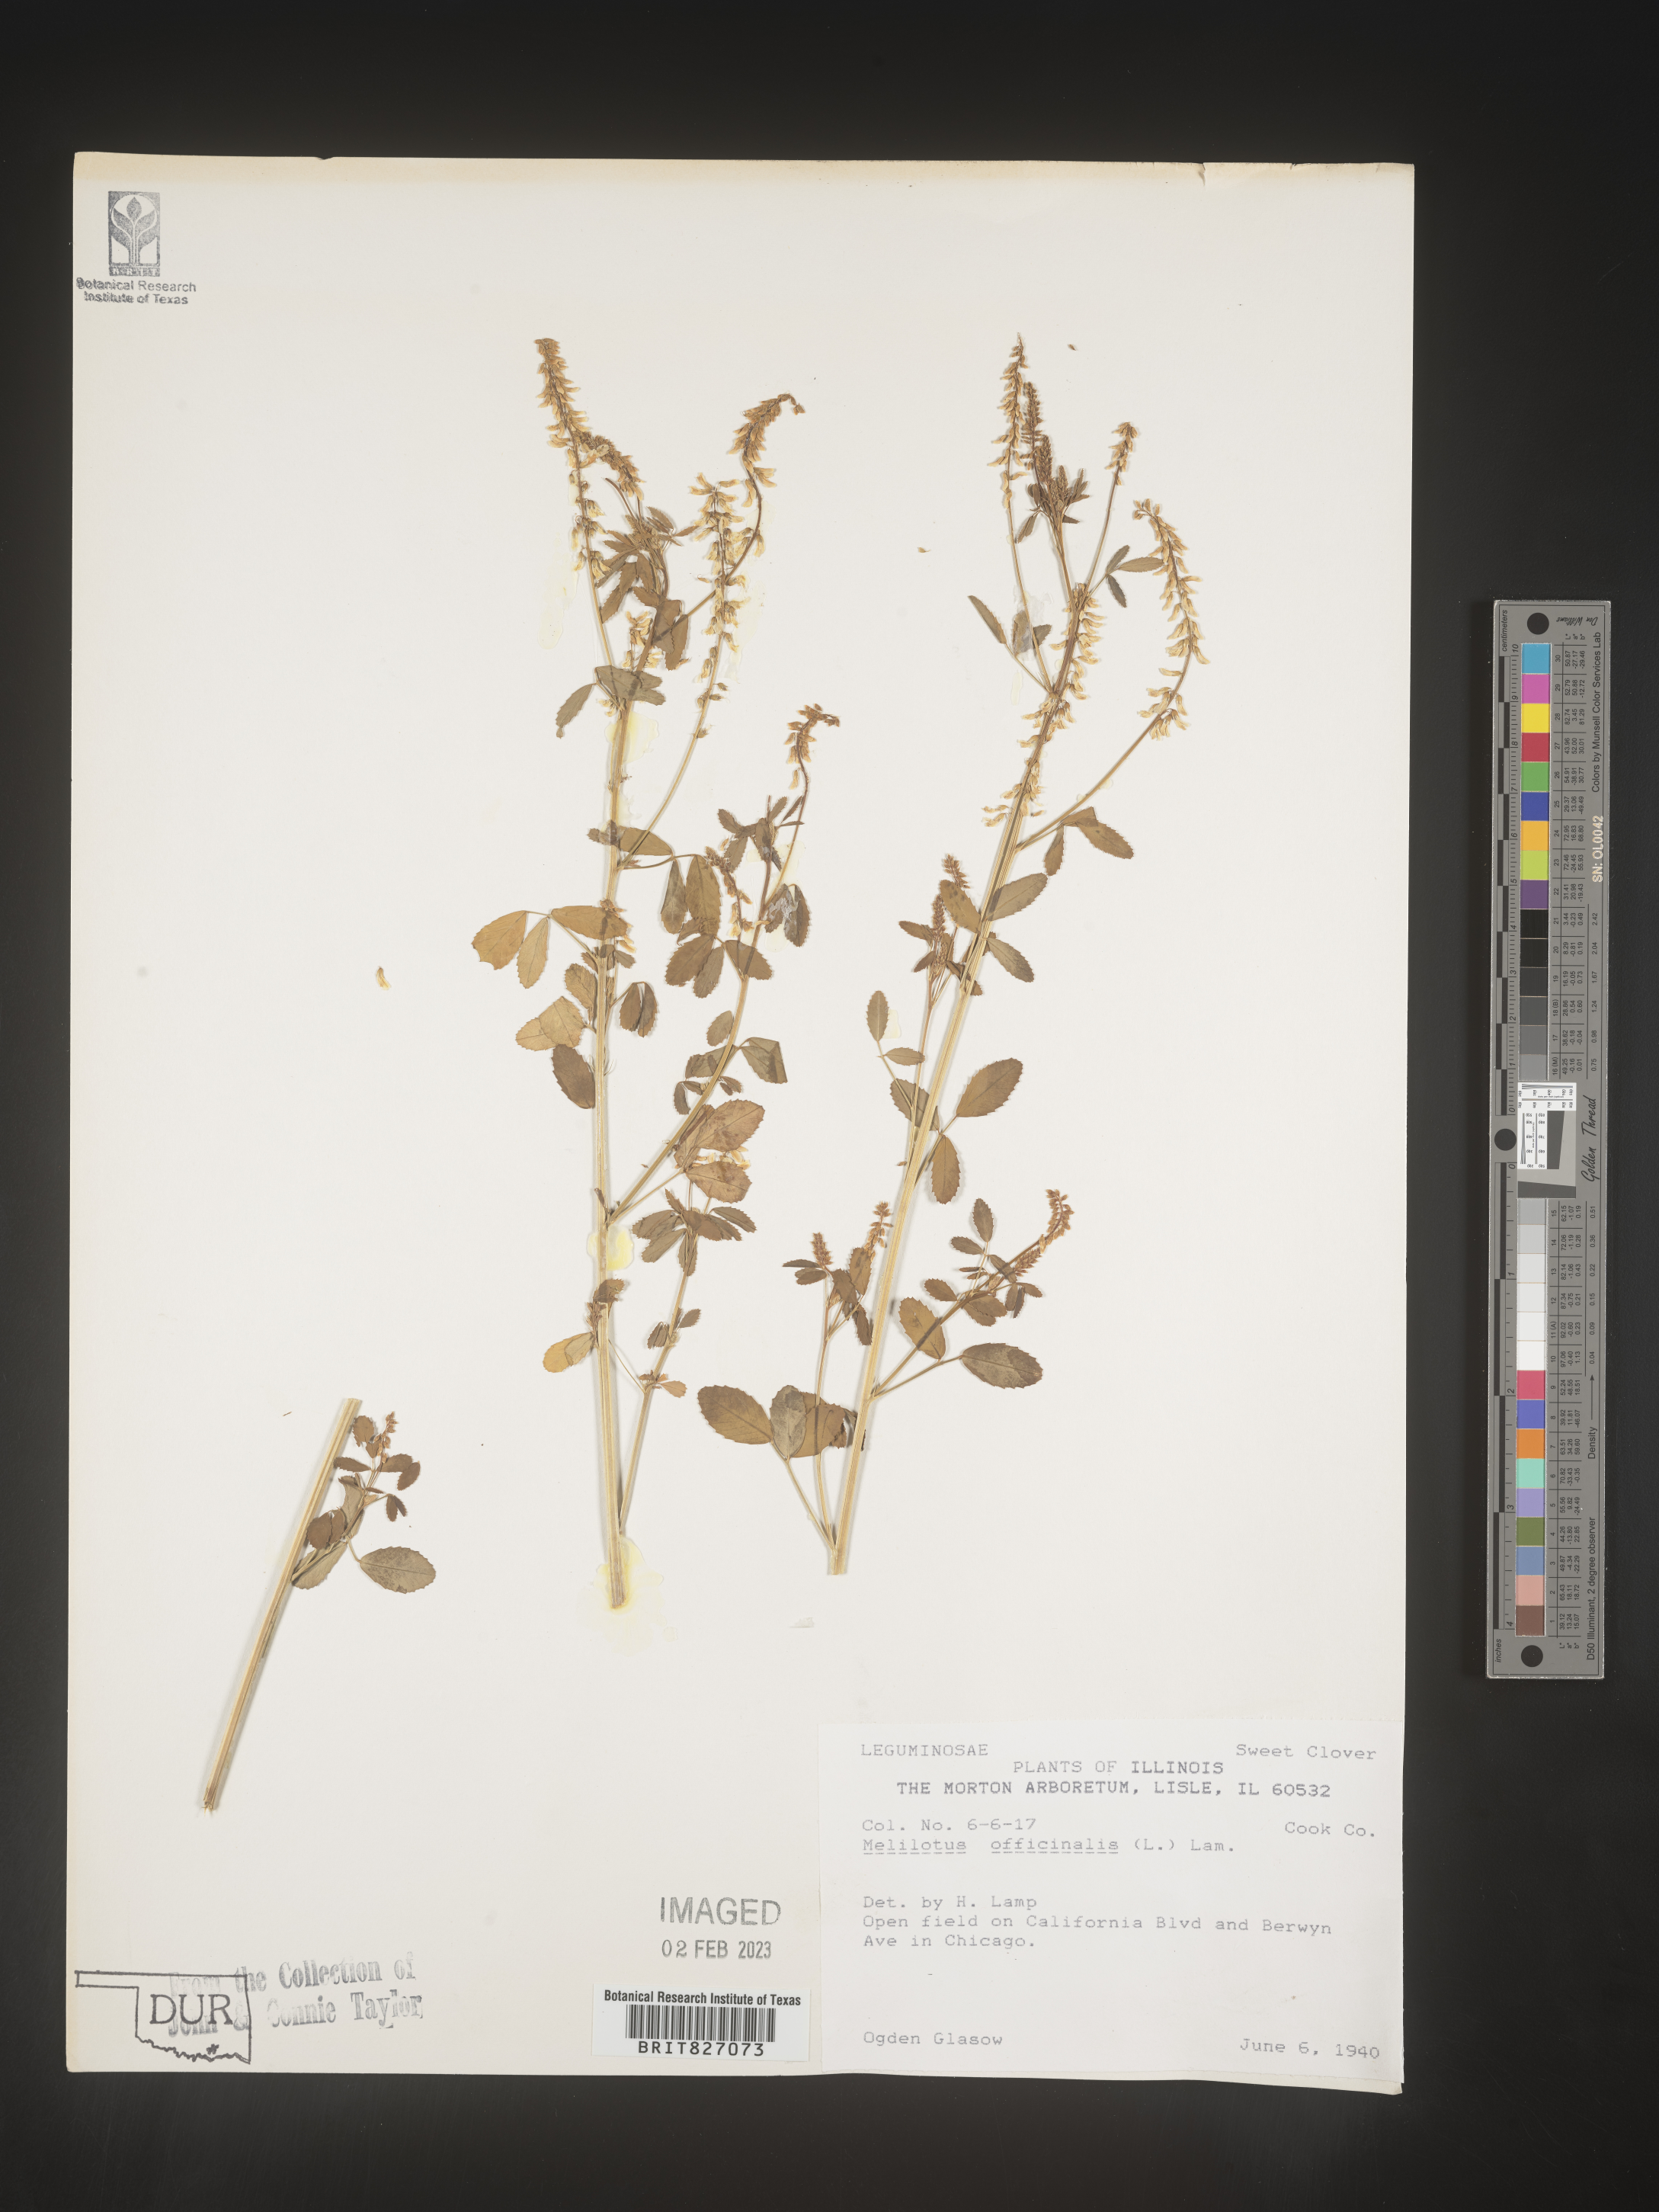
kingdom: Plantae
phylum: Tracheophyta
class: Magnoliopsida
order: Fabales
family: Fabaceae
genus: Melilotus
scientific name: Melilotus officinalis
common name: Sweetclover
